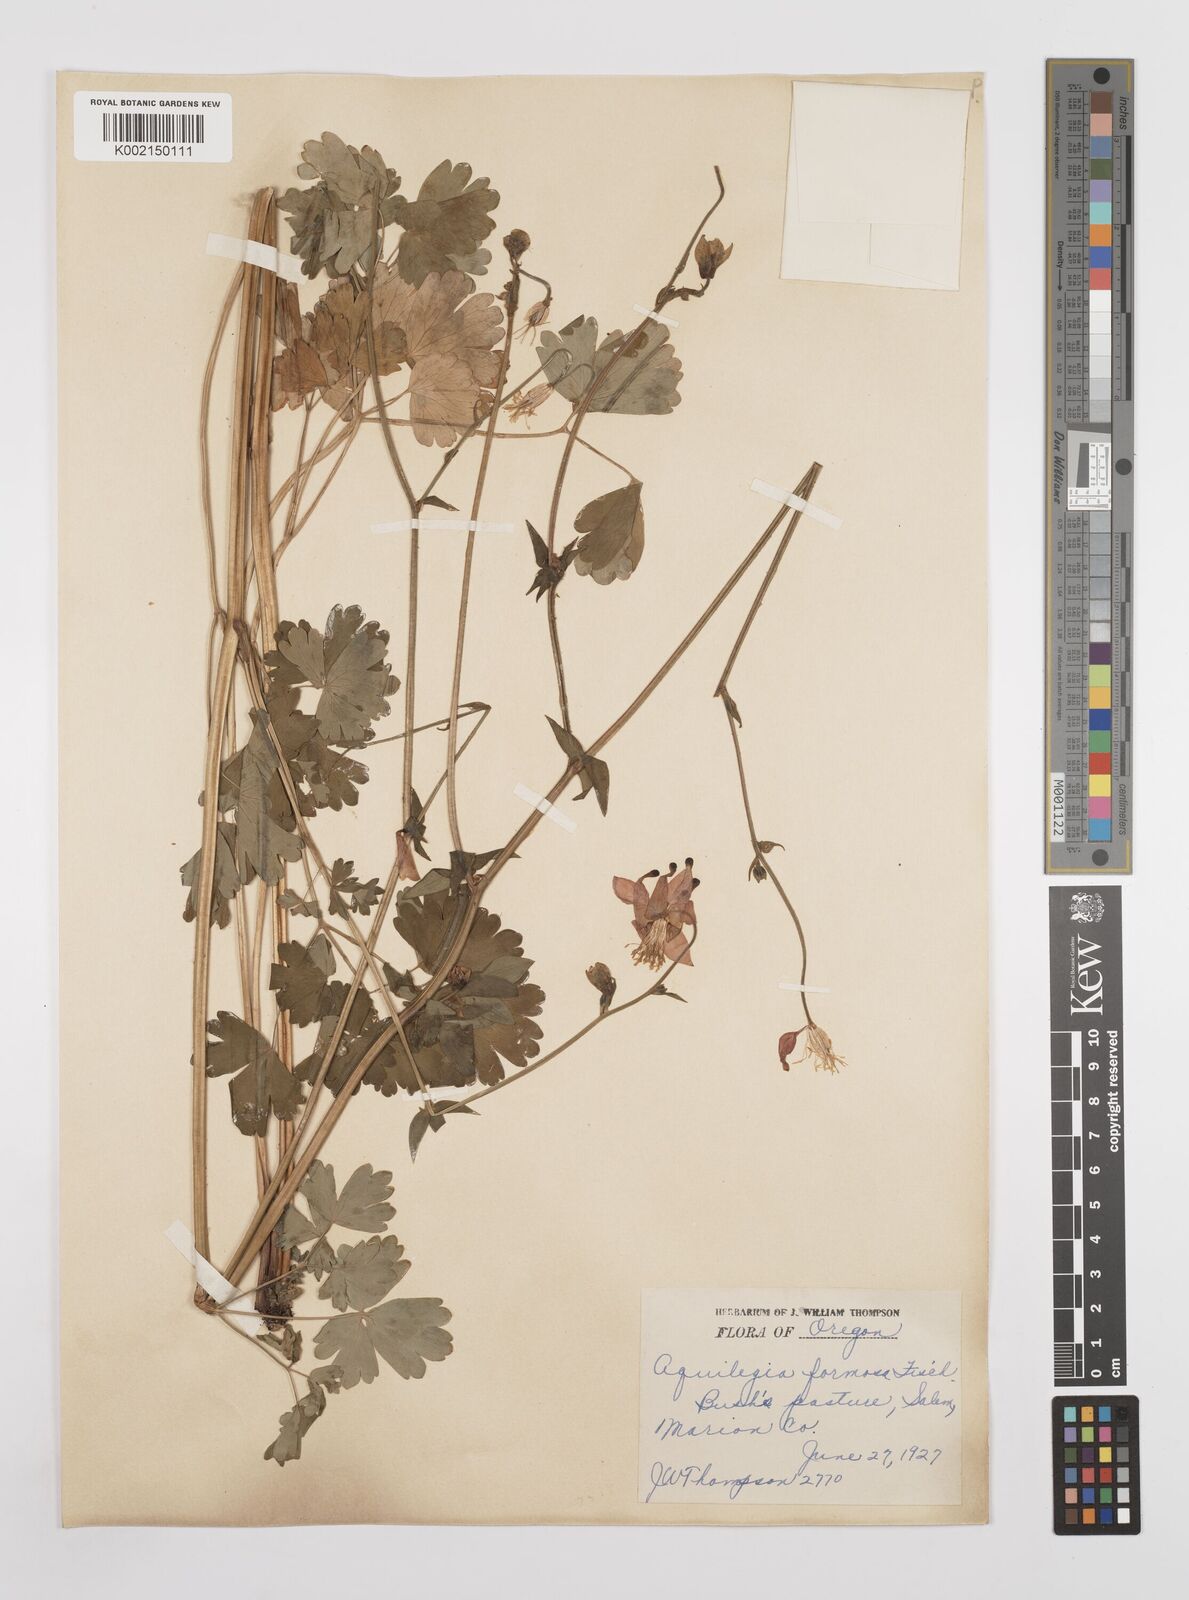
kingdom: Plantae
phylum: Tracheophyta
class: Magnoliopsida
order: Ranunculales
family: Ranunculaceae
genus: Aquilegia
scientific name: Aquilegia
